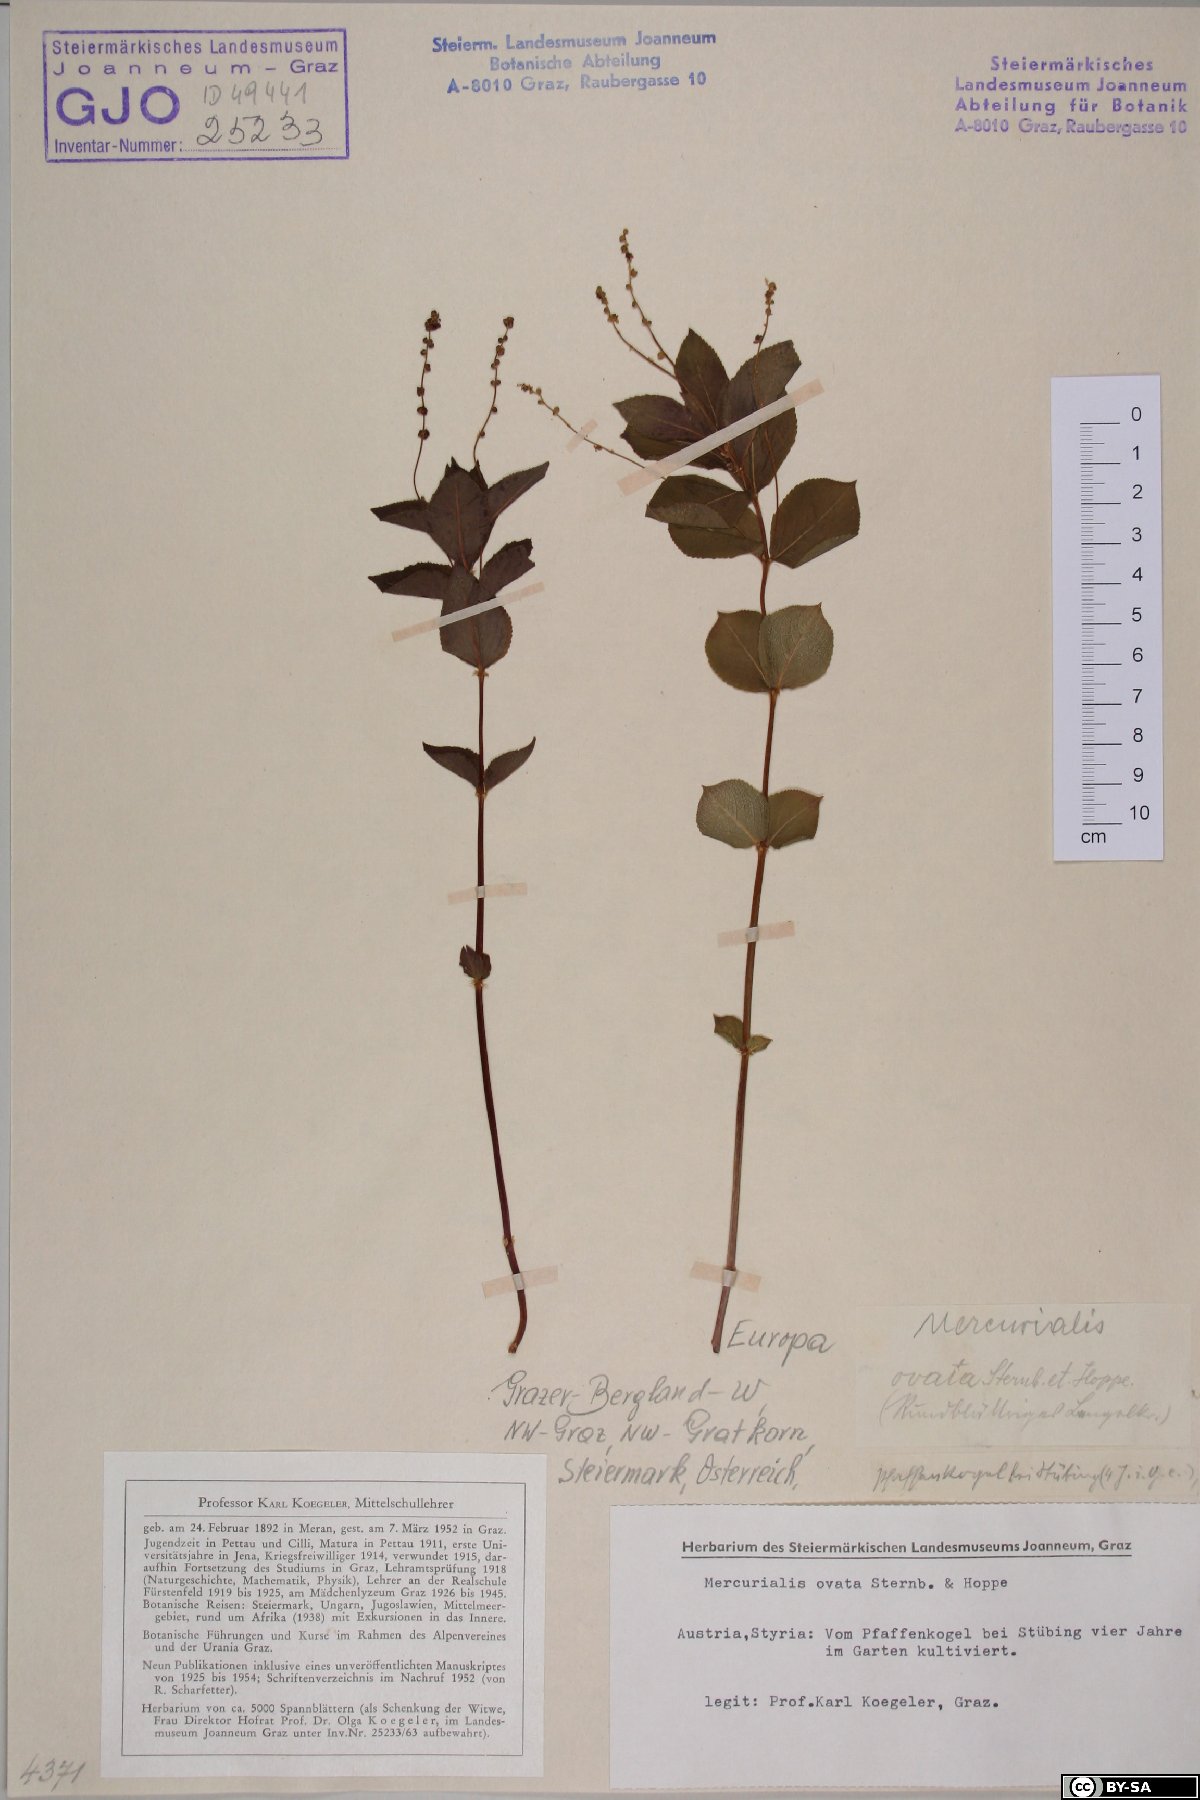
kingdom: Plantae
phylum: Tracheophyta
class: Magnoliopsida
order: Malpighiales
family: Euphorbiaceae
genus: Mercurialis
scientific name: Mercurialis ovata
